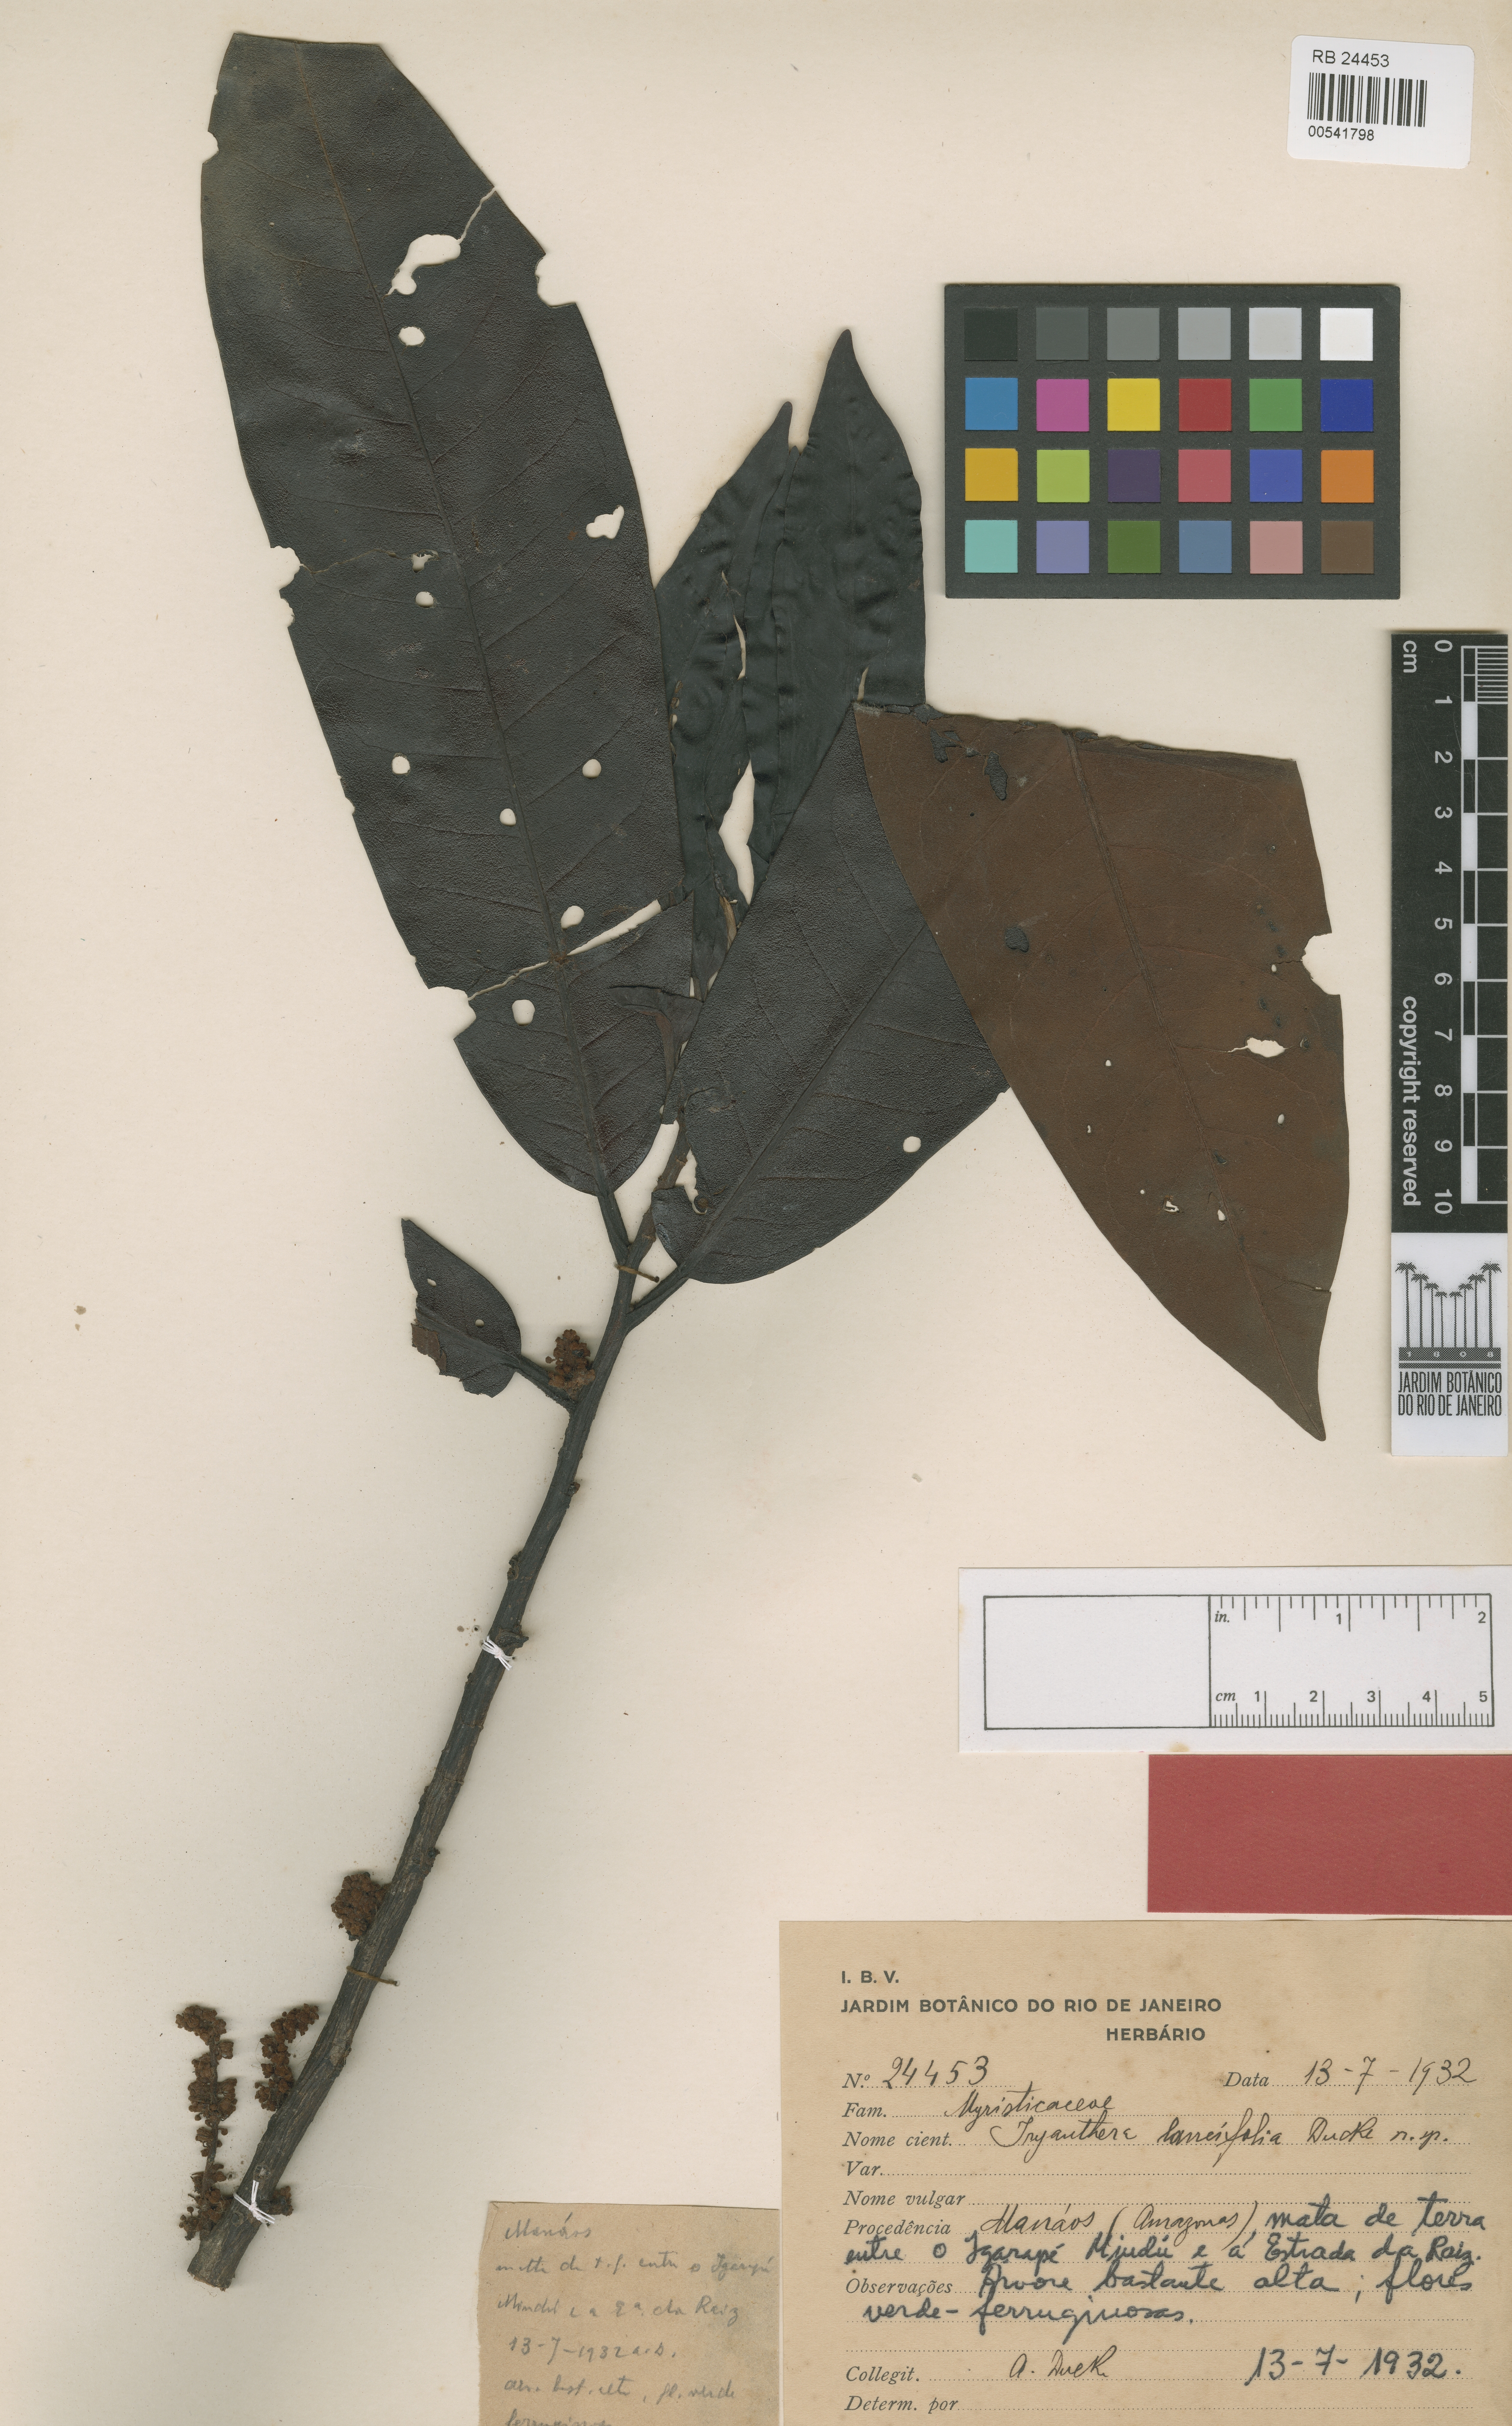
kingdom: Plantae
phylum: Tracheophyta
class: Magnoliopsida
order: Magnoliales
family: Myristicaceae
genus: Iryanthera
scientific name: Iryanthera lancifolia
